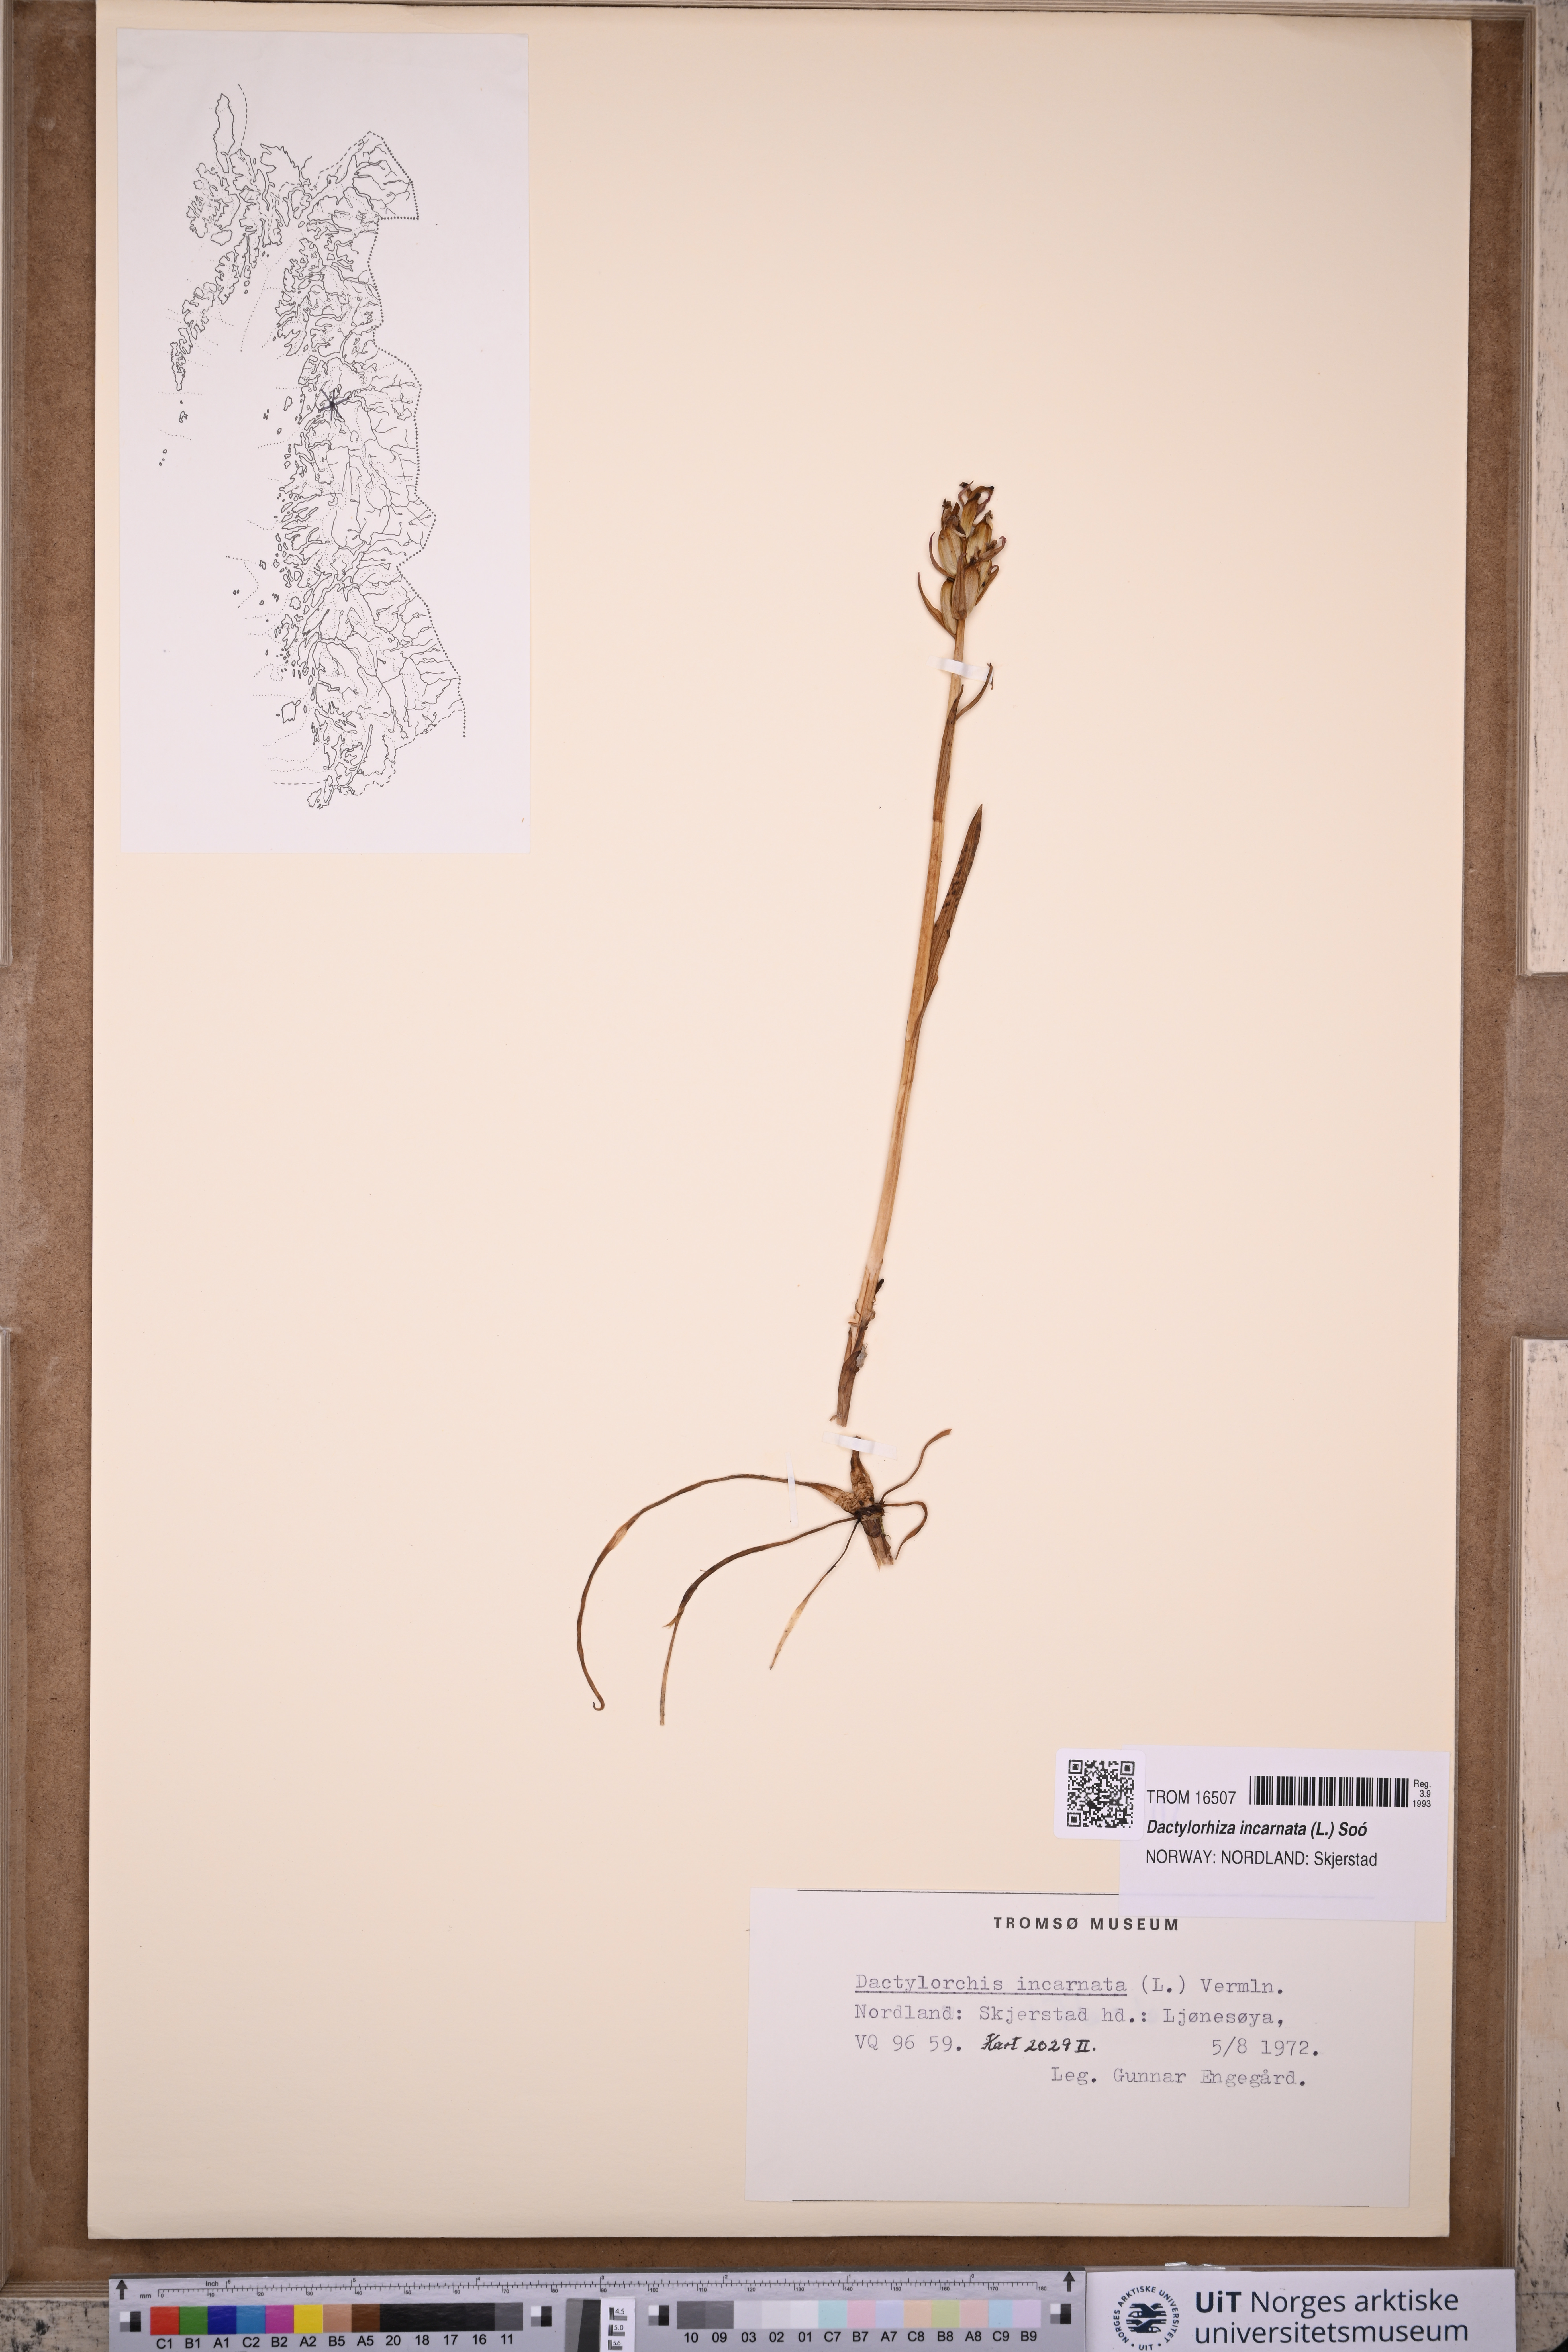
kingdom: Plantae
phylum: Tracheophyta
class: Liliopsida
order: Asparagales
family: Orchidaceae
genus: Dactylorhiza
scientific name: Dactylorhiza incarnata
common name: Early marsh-orchid
